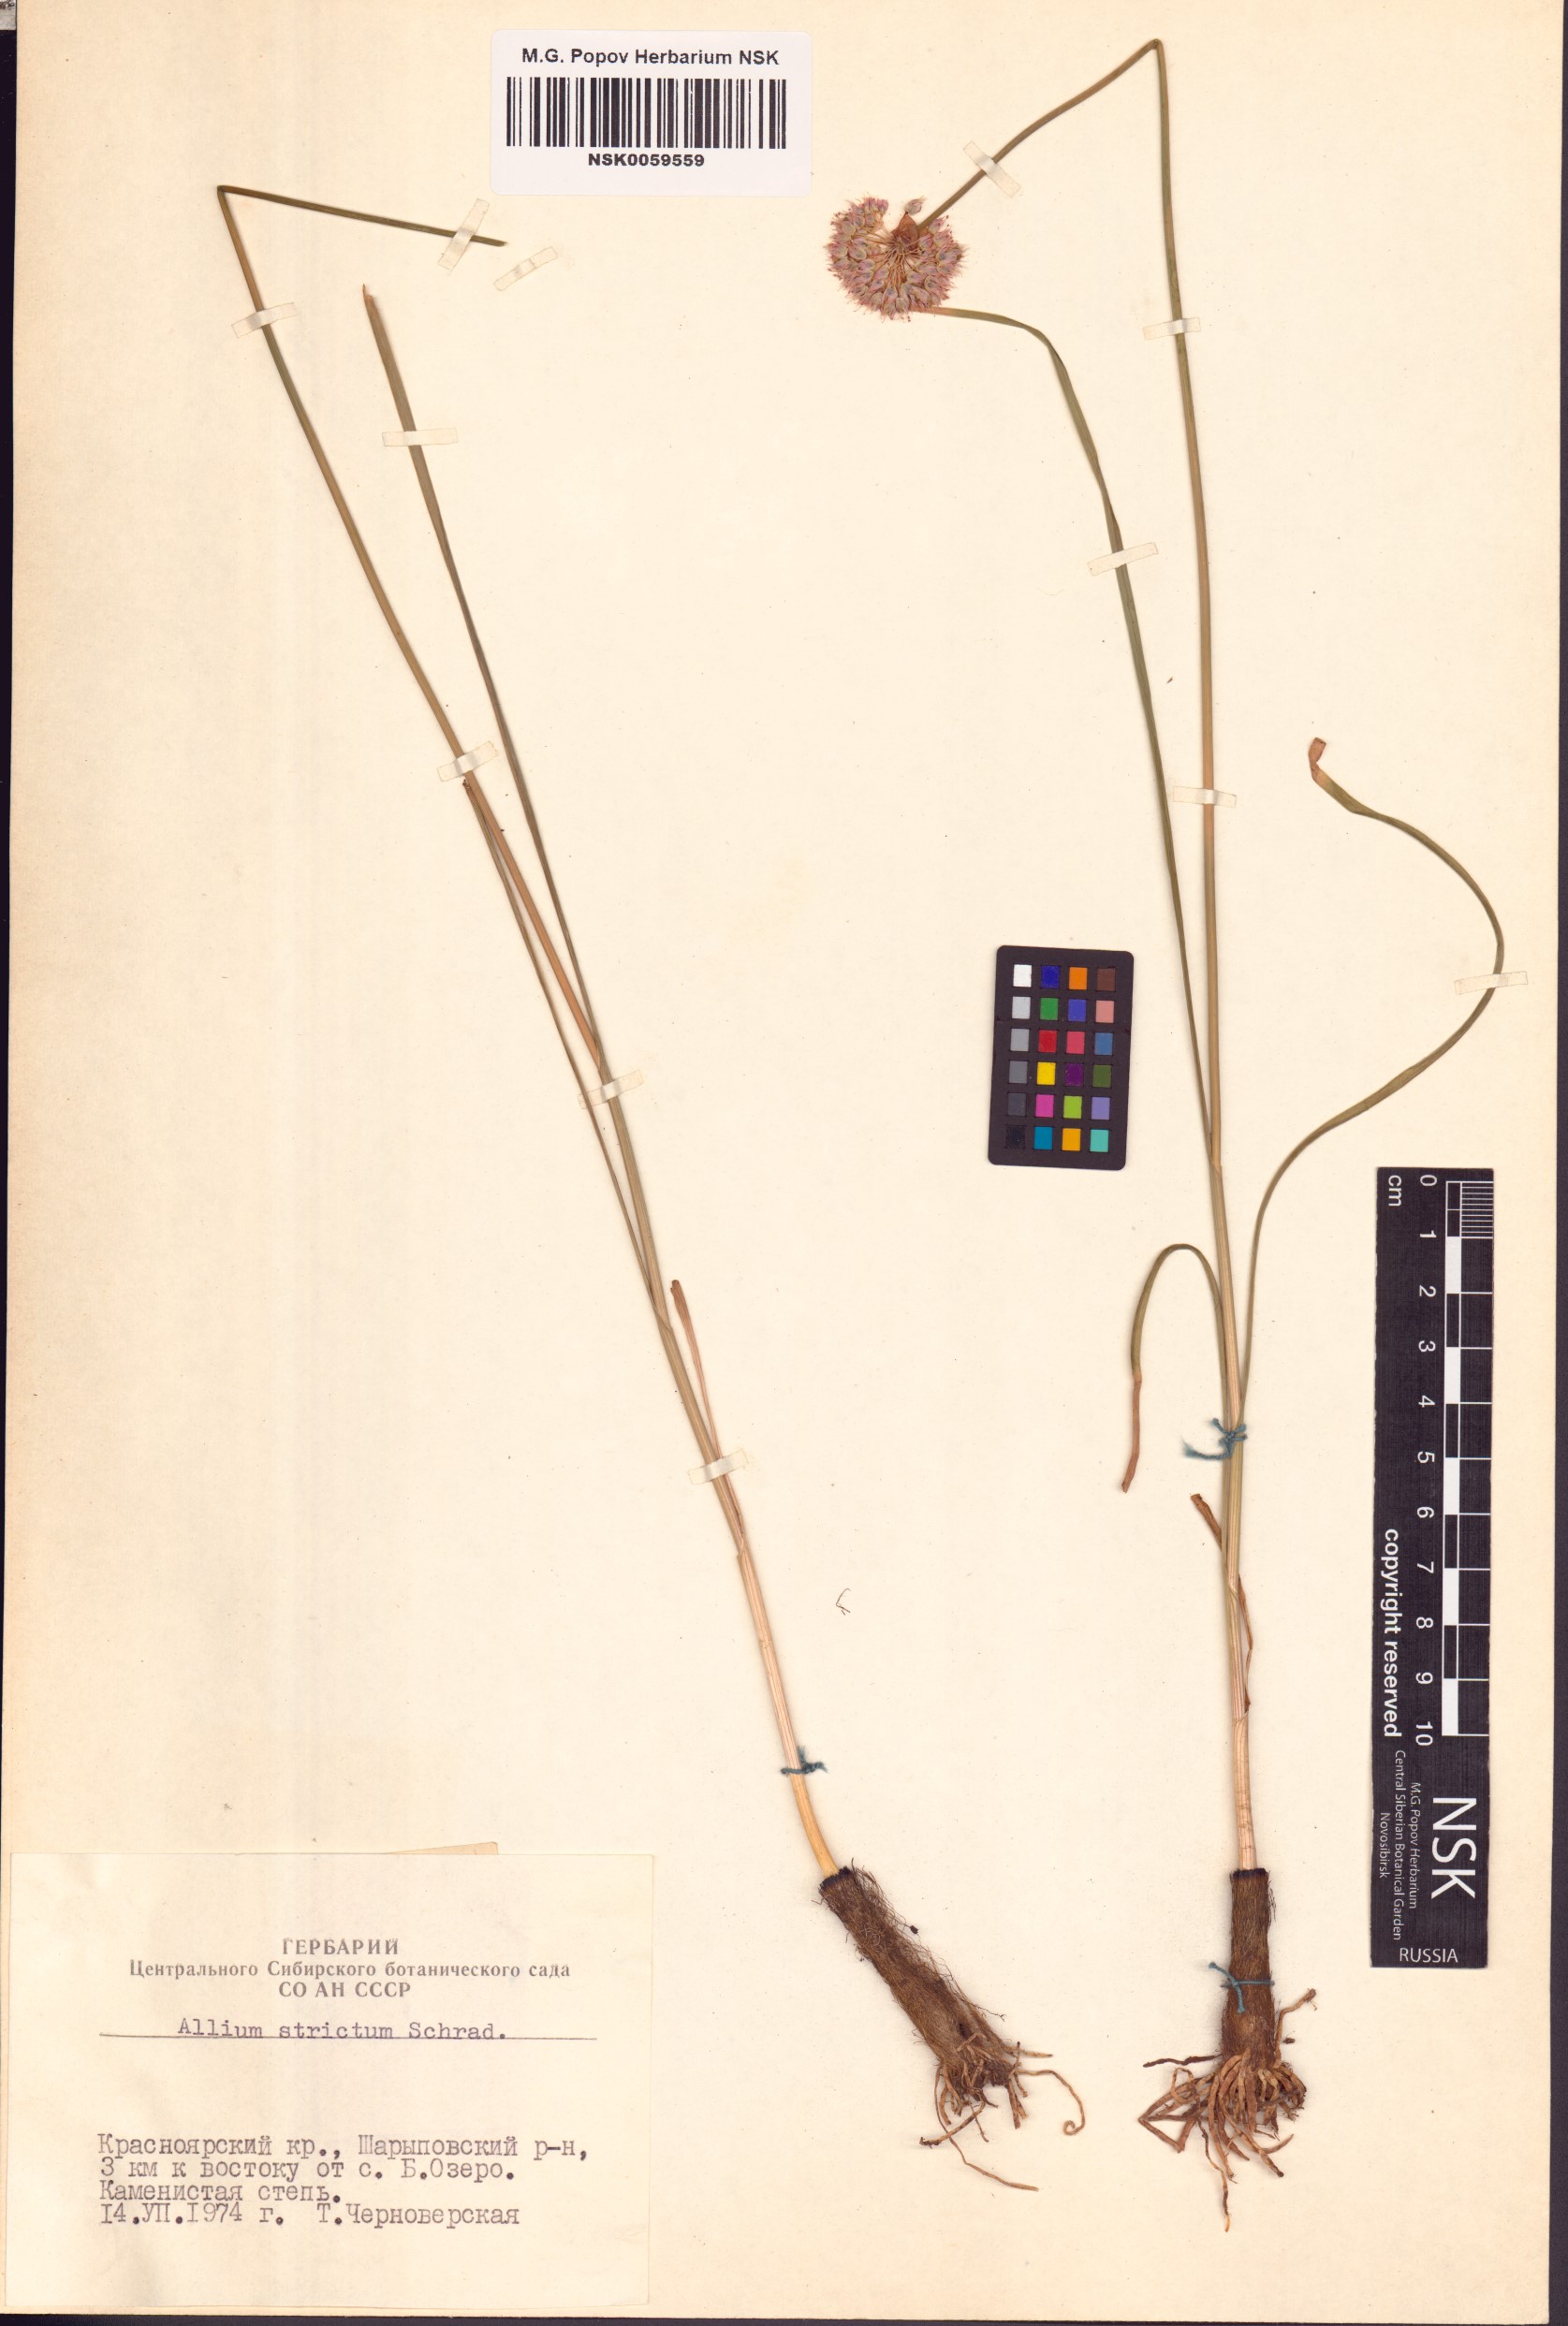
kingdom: Plantae
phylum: Tracheophyta
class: Liliopsida
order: Asparagales
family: Amaryllidaceae
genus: Allium
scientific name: Allium strictum
